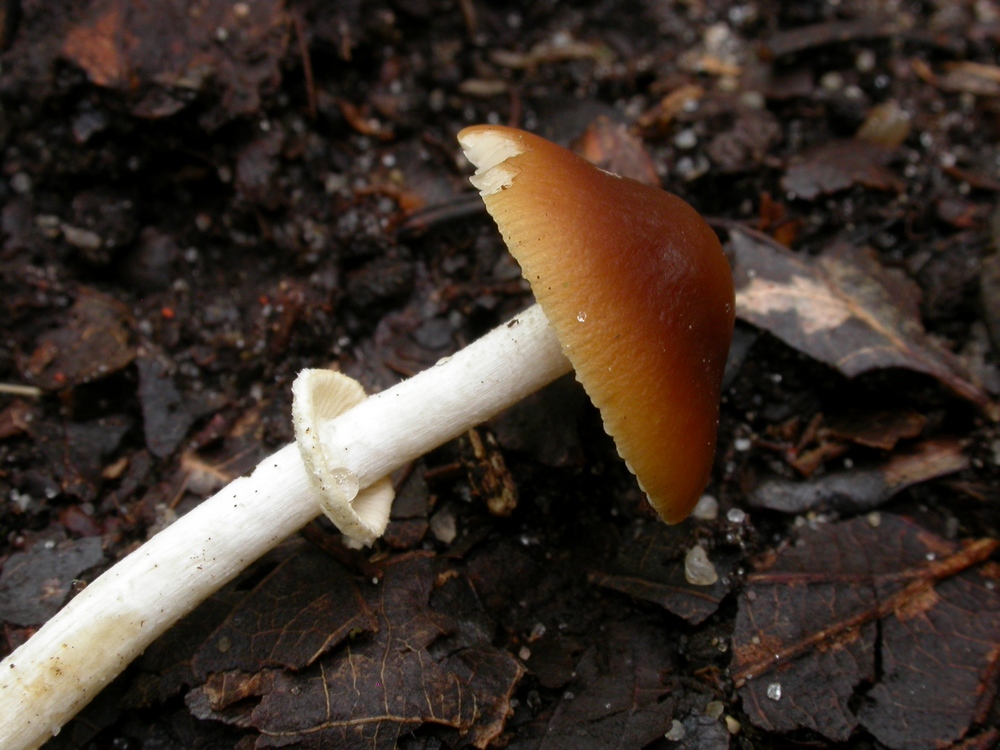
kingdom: Fungi
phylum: Basidiomycota
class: Agaricomycetes
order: Agaricales
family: Bolbitiaceae
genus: Conocybe
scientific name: Conocybe arrhenii
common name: ring-dansehat
